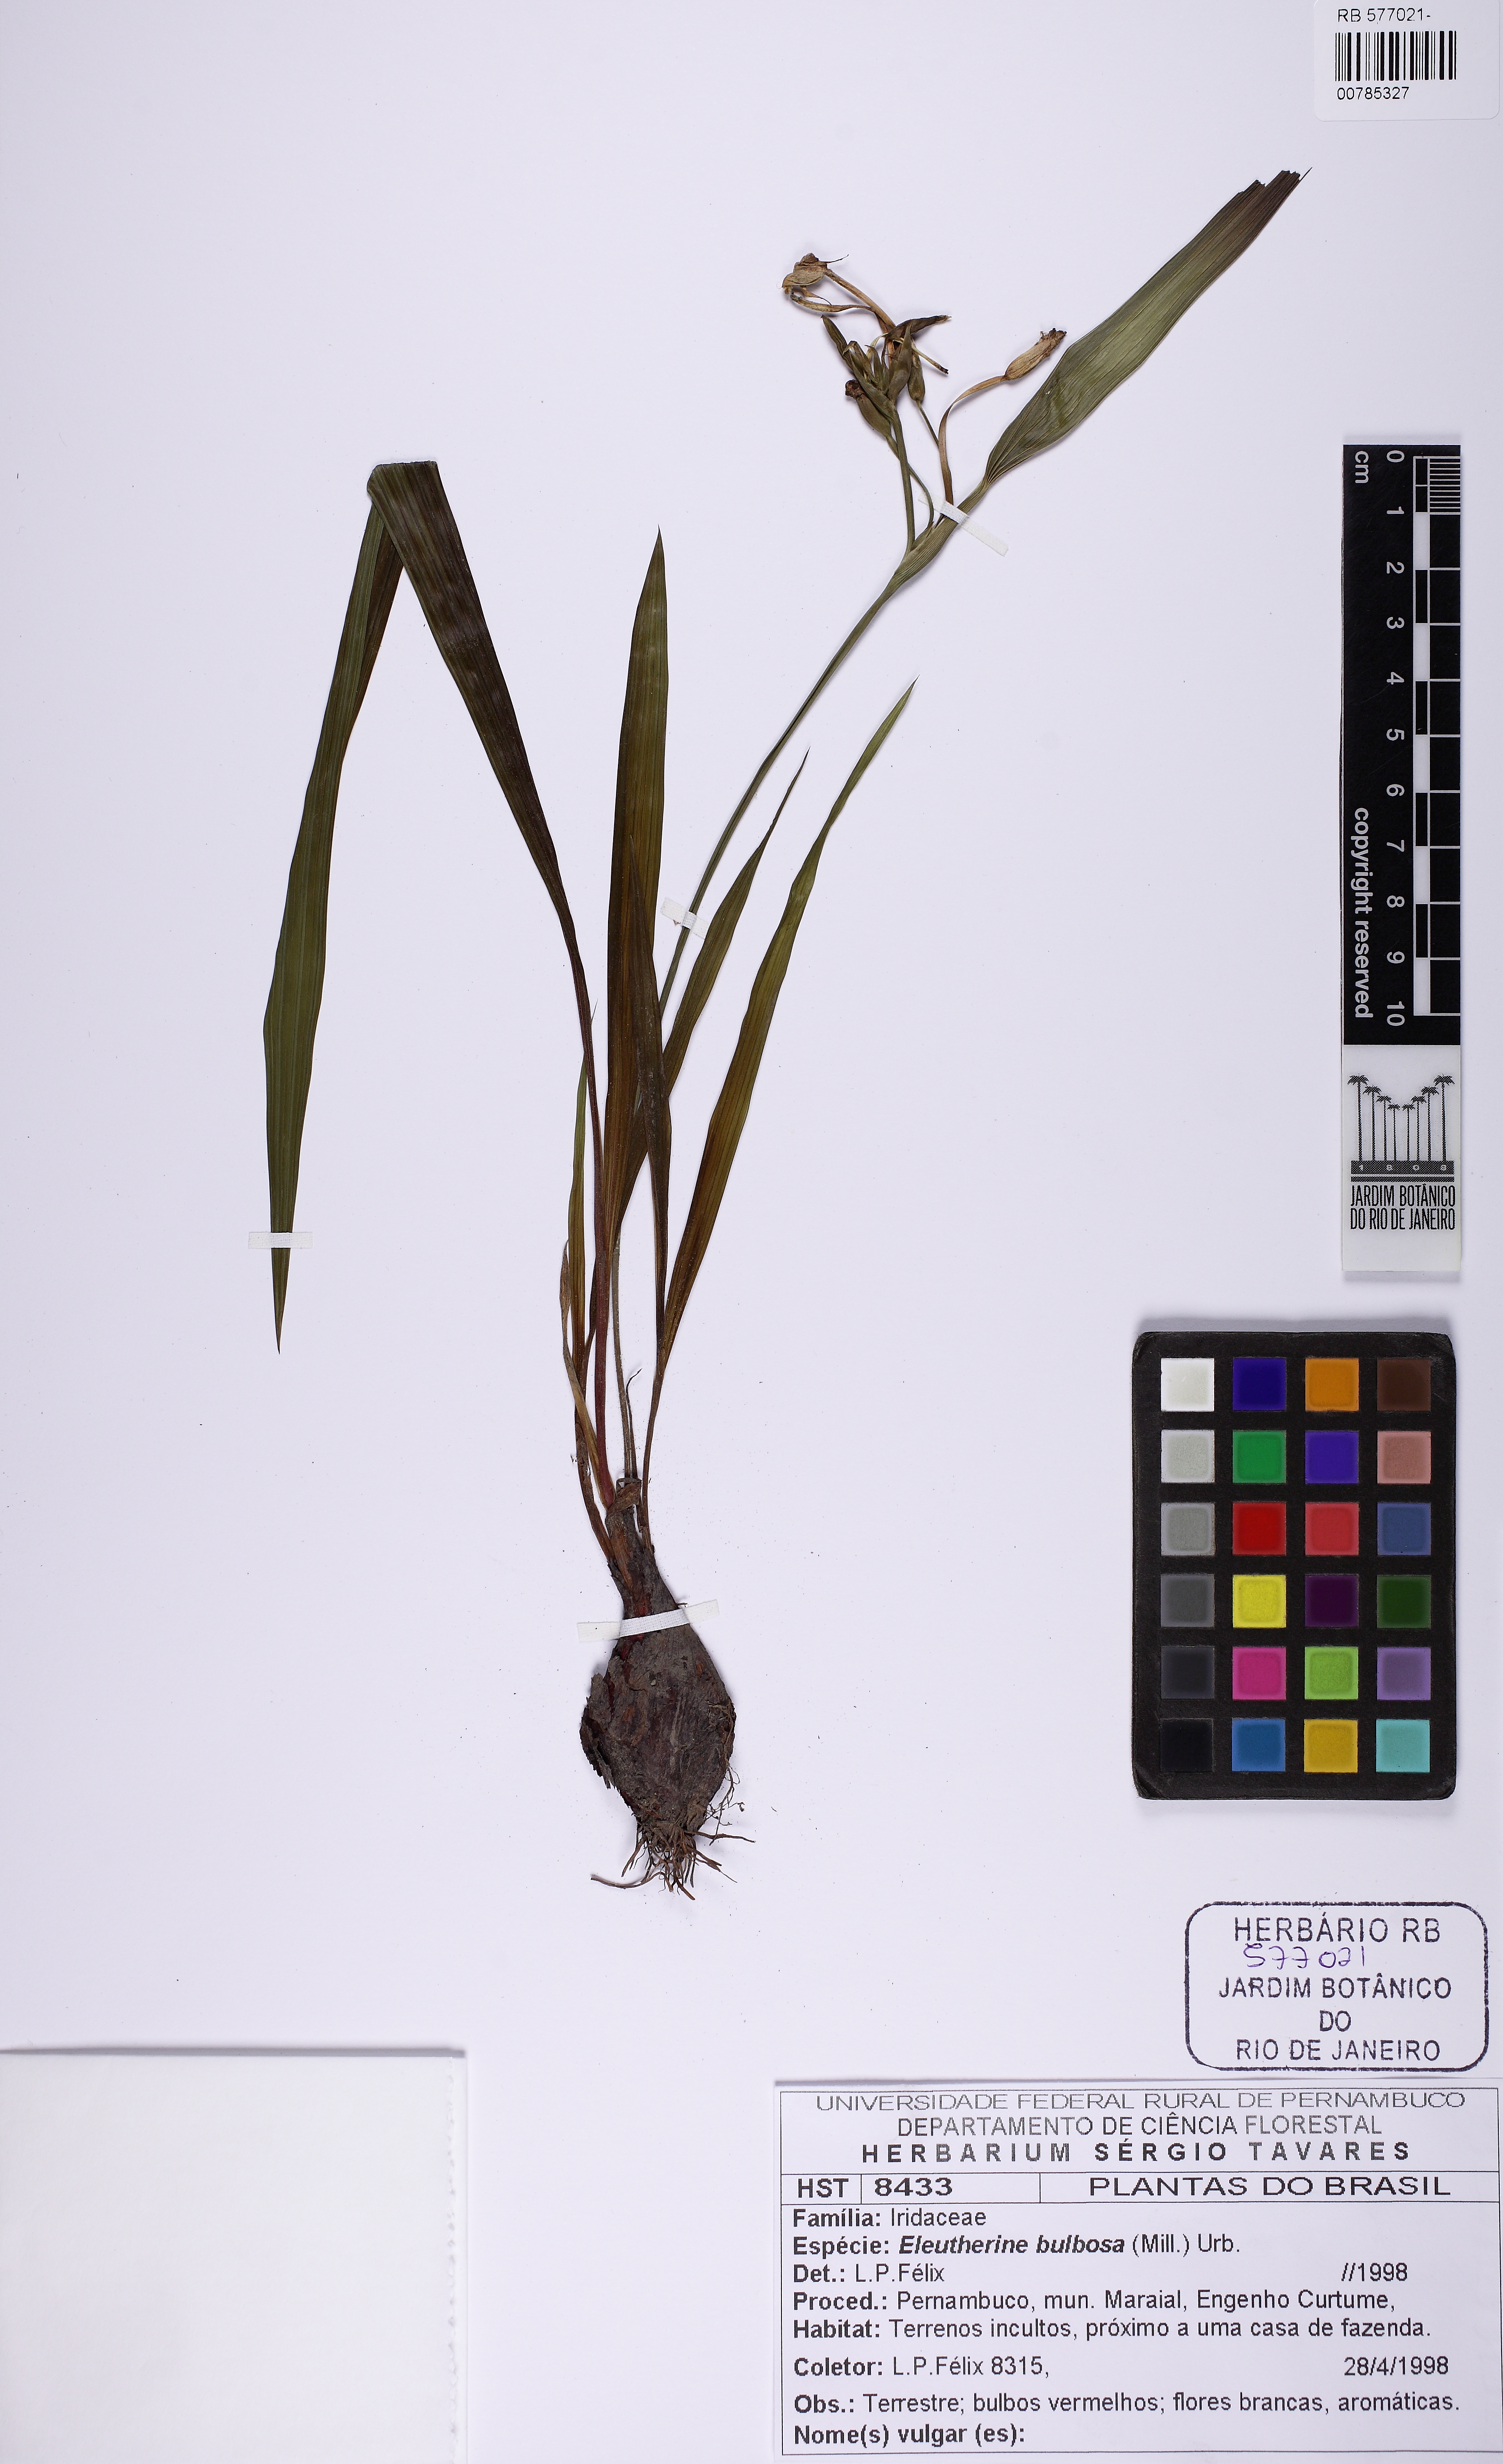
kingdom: Plantae
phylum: Tracheophyta
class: Liliopsida
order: Asparagales
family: Iridaceae
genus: Eleutherine
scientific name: Eleutherine bulbosa
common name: Lagrimas de la virgen
